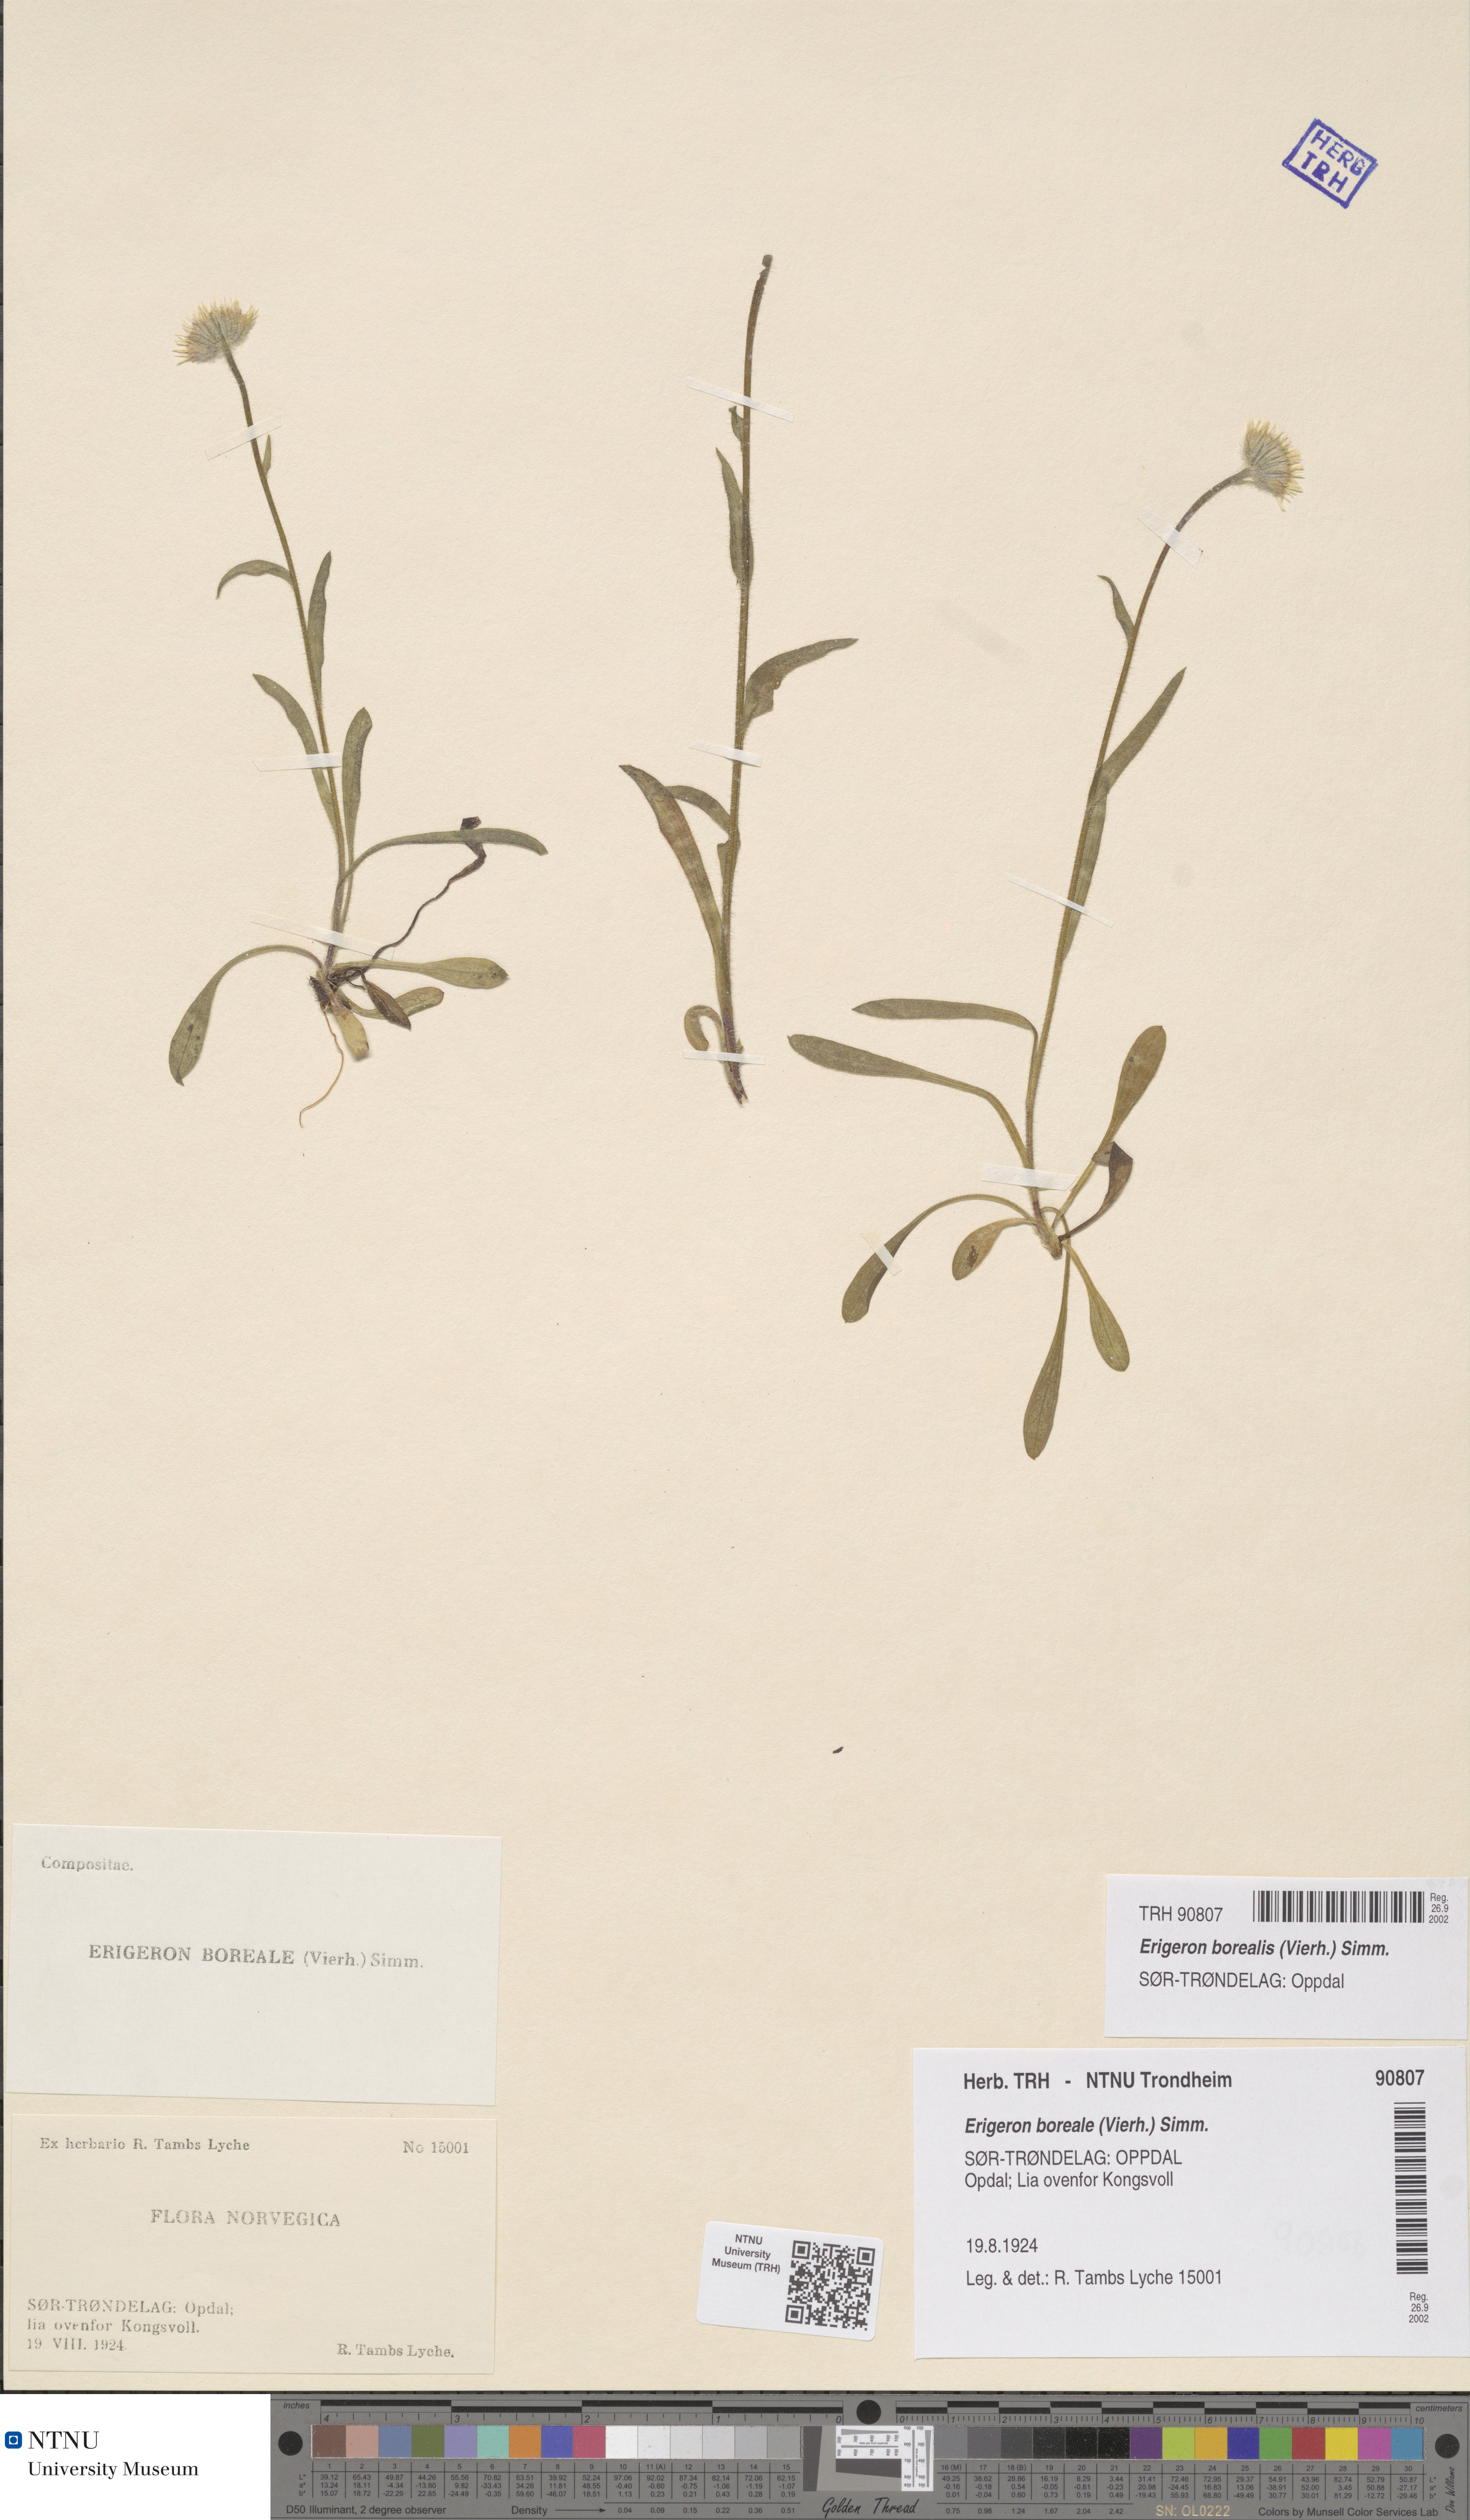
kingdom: Plantae
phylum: Tracheophyta
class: Magnoliopsida
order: Asterales
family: Asteraceae
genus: Erigeron
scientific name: Erigeron borealis
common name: Alpine fleabane
